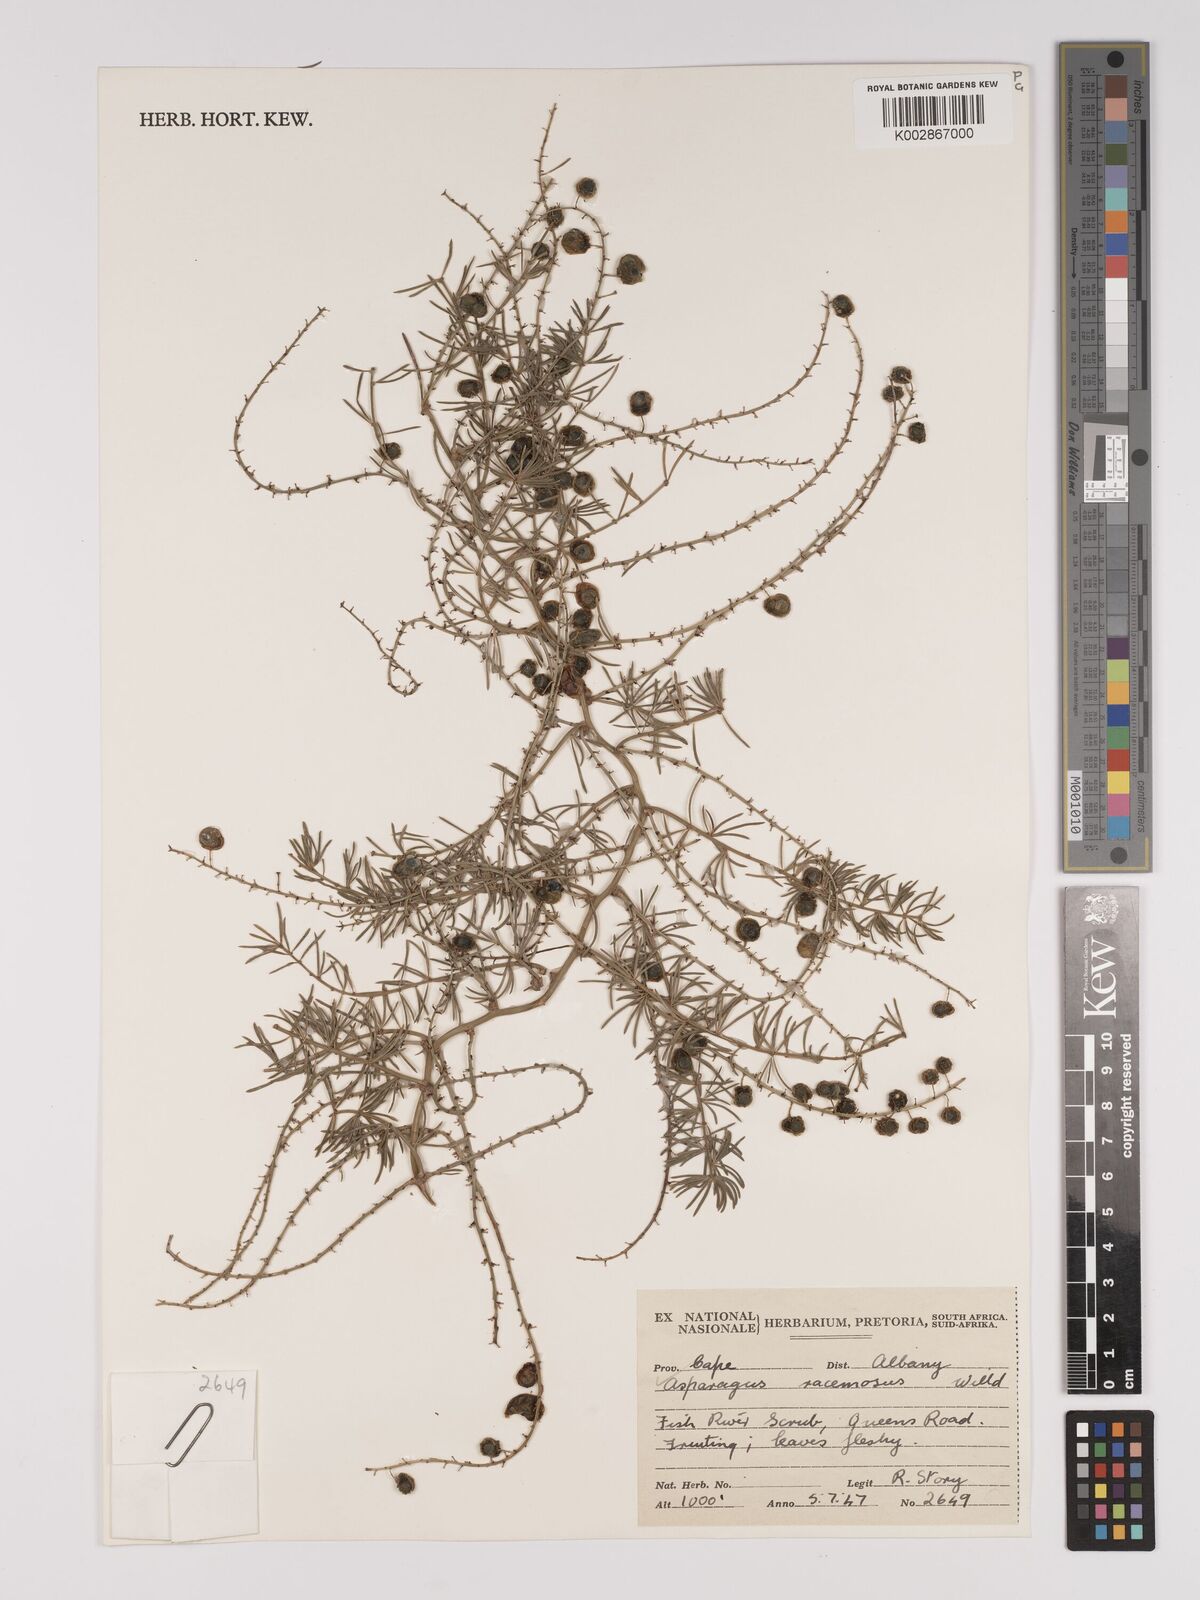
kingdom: Plantae
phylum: Tracheophyta
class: Liliopsida
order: Asparagales
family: Asparagaceae
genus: Asparagus
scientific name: Asparagus racemosus
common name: Asparagus-fern
